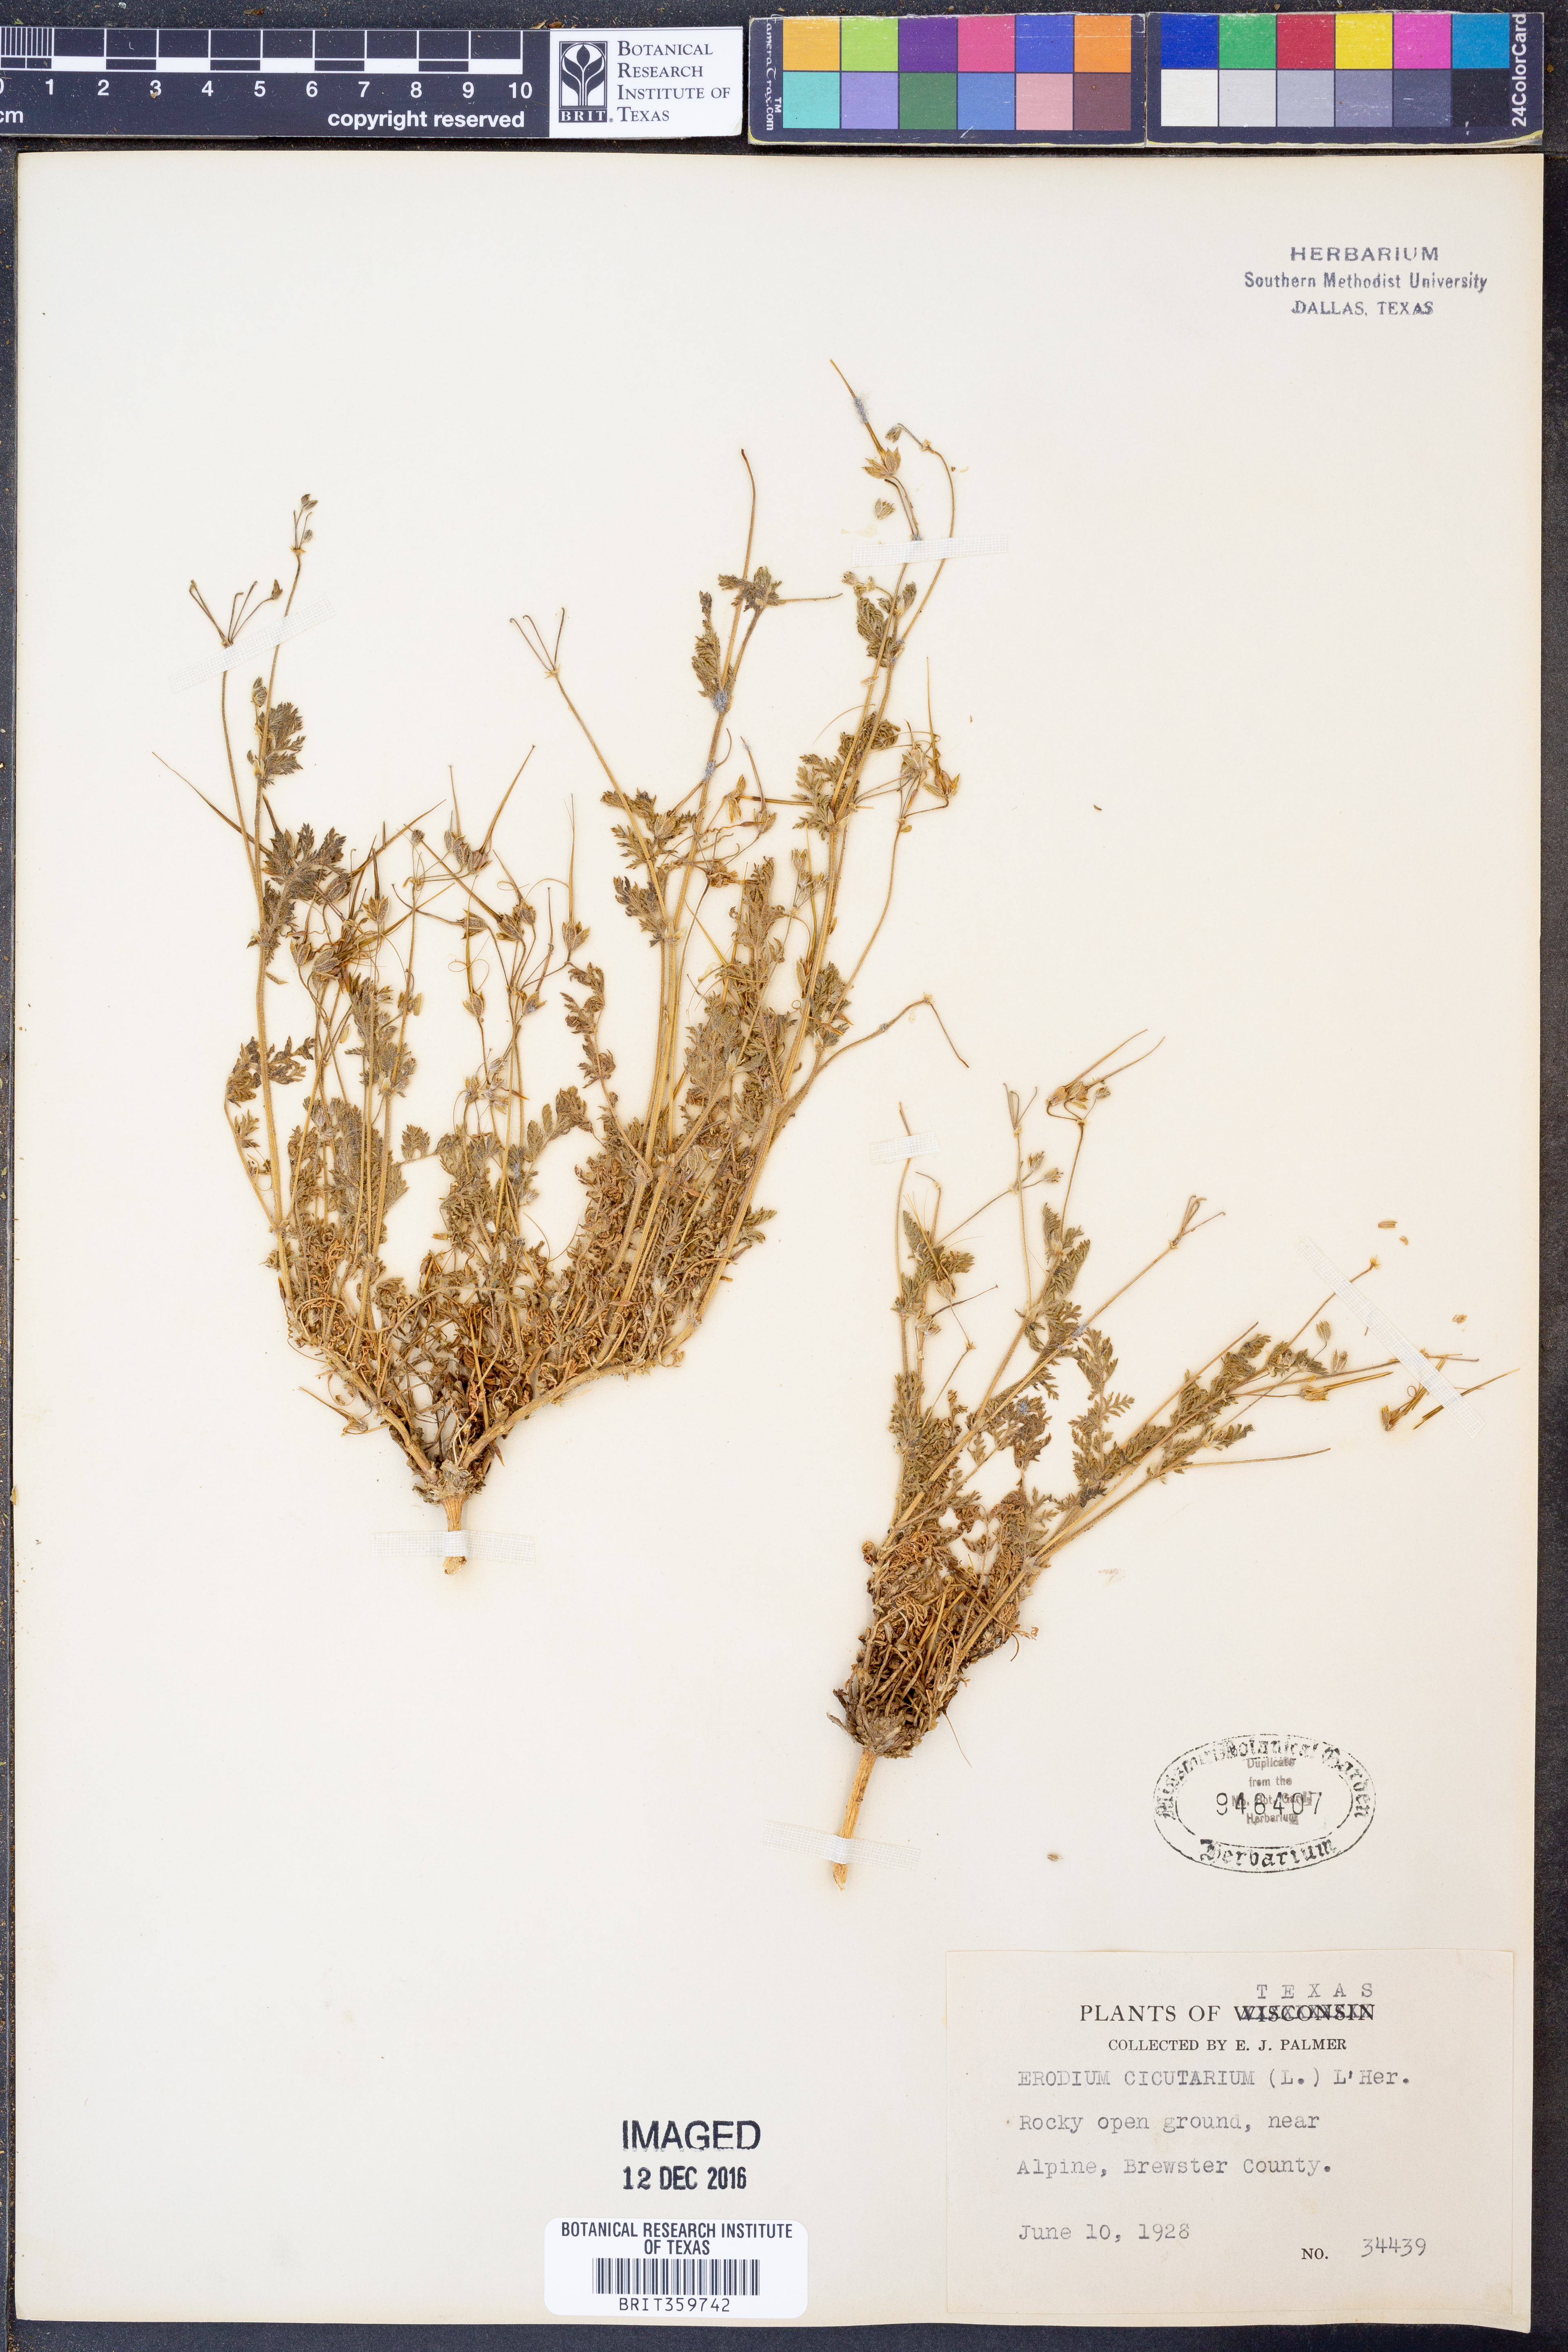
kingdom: Plantae
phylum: Tracheophyta
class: Magnoliopsida
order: Geraniales
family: Geraniaceae
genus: Erodium
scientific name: Erodium cicutarium
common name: Common stork's-bill
